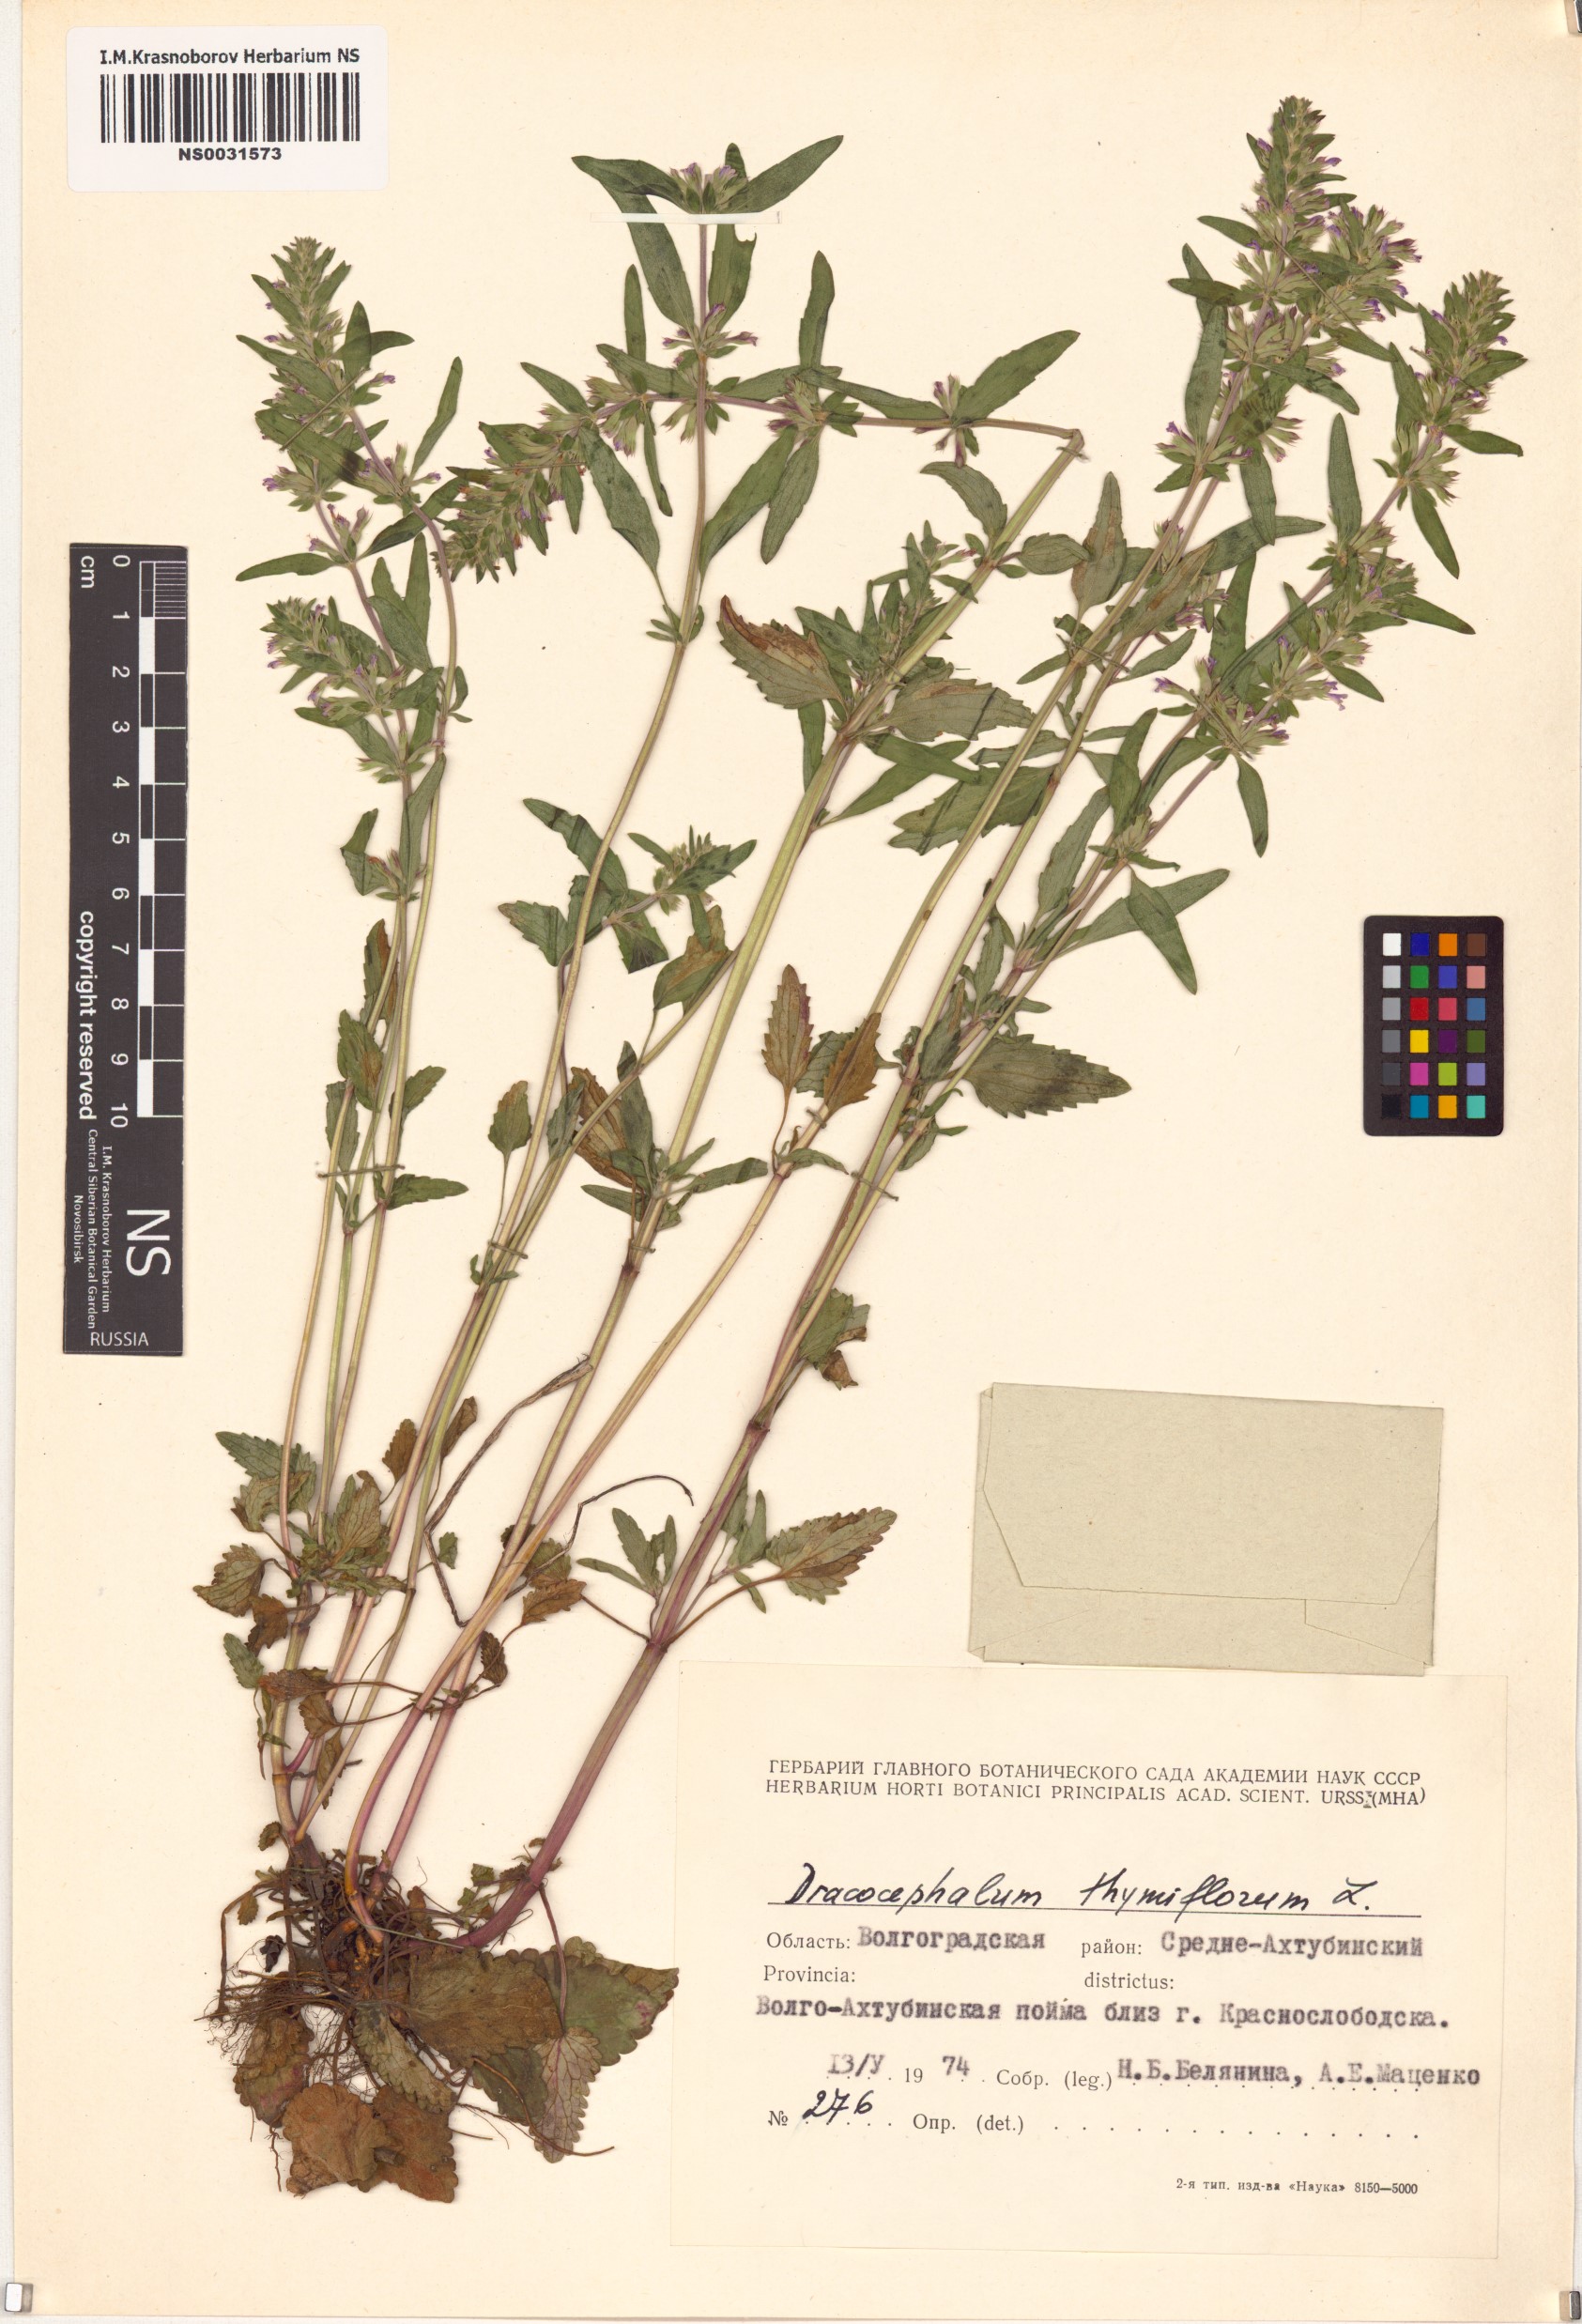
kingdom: Plantae
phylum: Tracheophyta
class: Magnoliopsida
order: Lamiales
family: Lamiaceae
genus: Dracocephalum
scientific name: Dracocephalum thymiflorum
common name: Thymeleaf dragonhead
